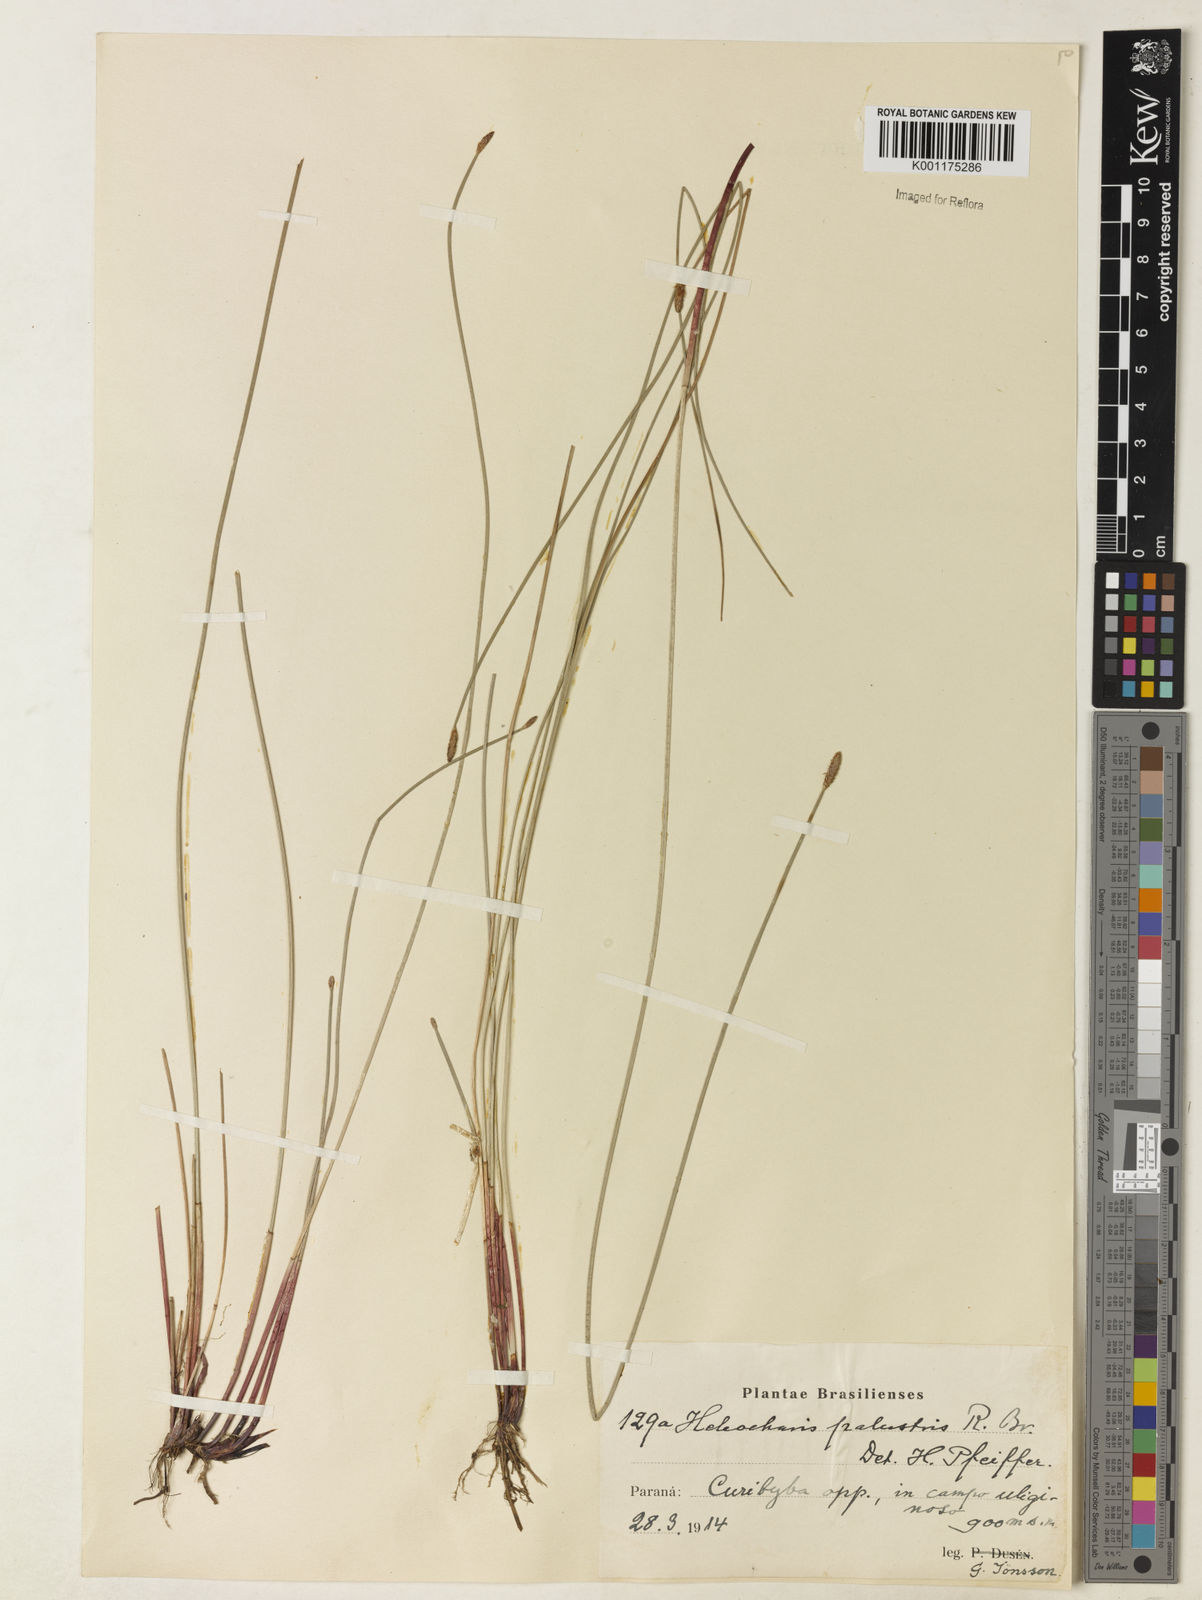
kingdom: Plantae
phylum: Tracheophyta
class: Liliopsida
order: Poales
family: Cyperaceae
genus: Eleocharis
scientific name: Eleocharis palustris
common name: Common spike-rush
